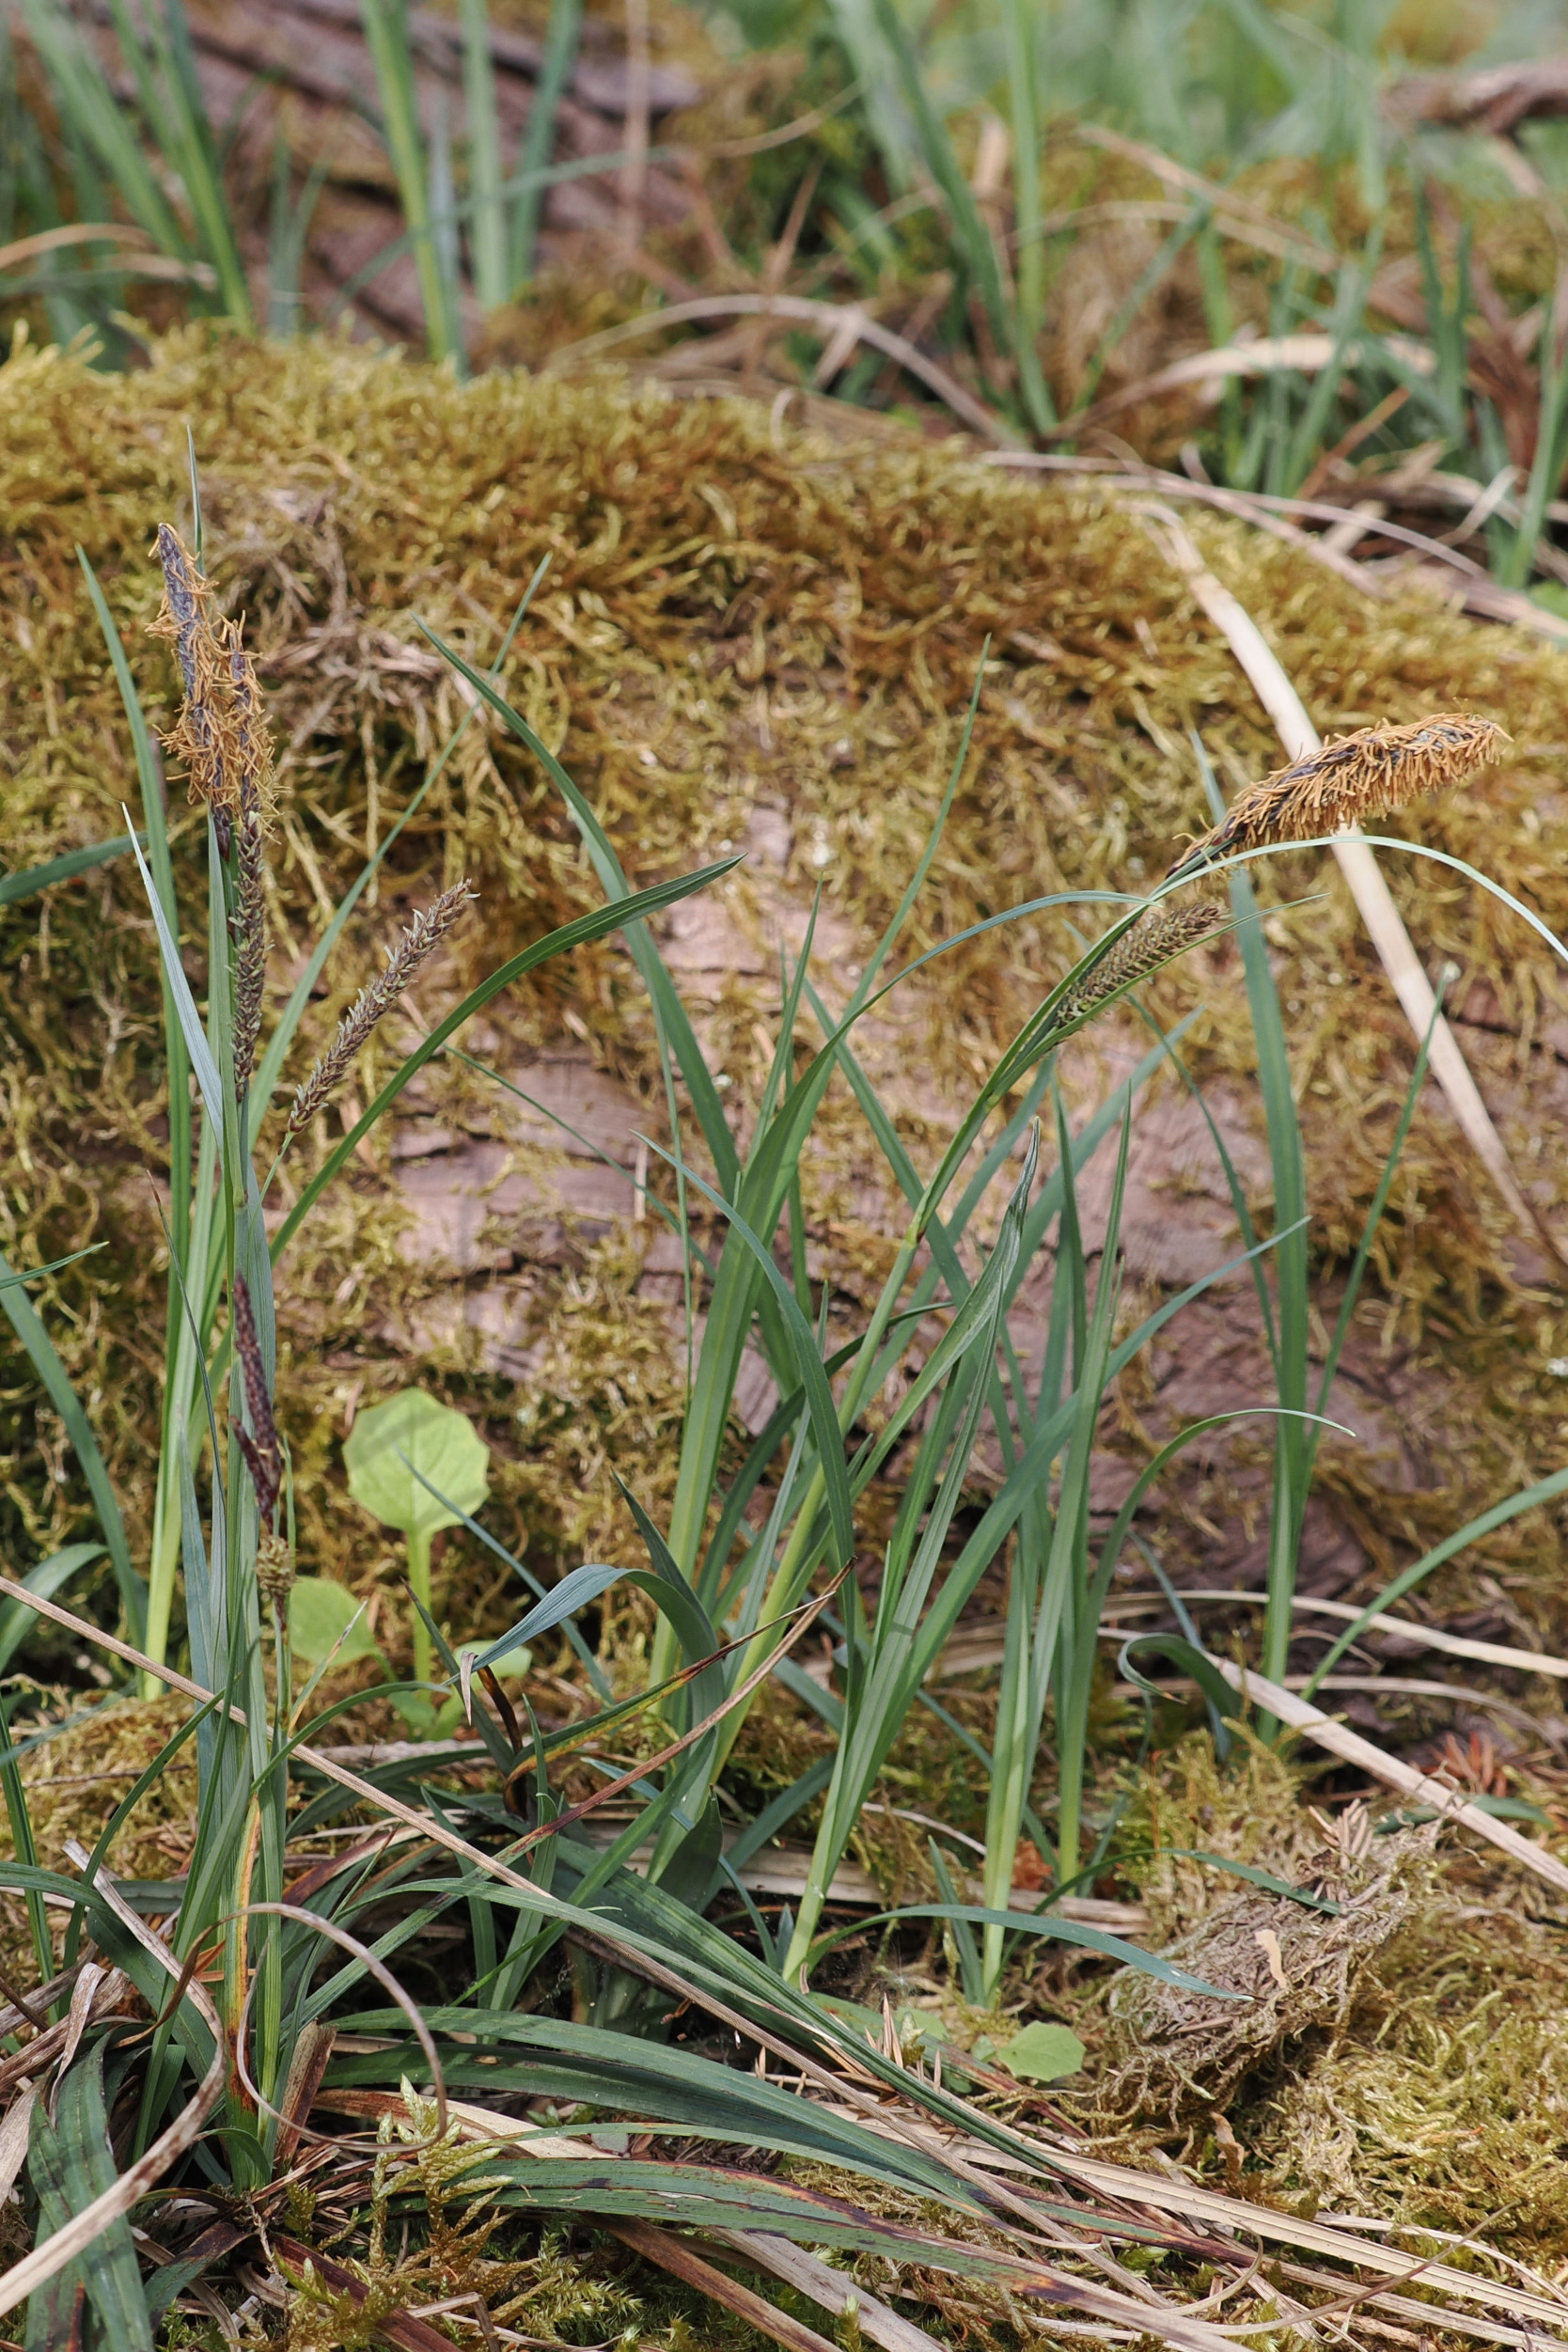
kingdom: Plantae
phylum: Tracheophyta
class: Liliopsida
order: Poales
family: Cyperaceae
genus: Carex
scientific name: Carex flacca
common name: Blågrøn star
